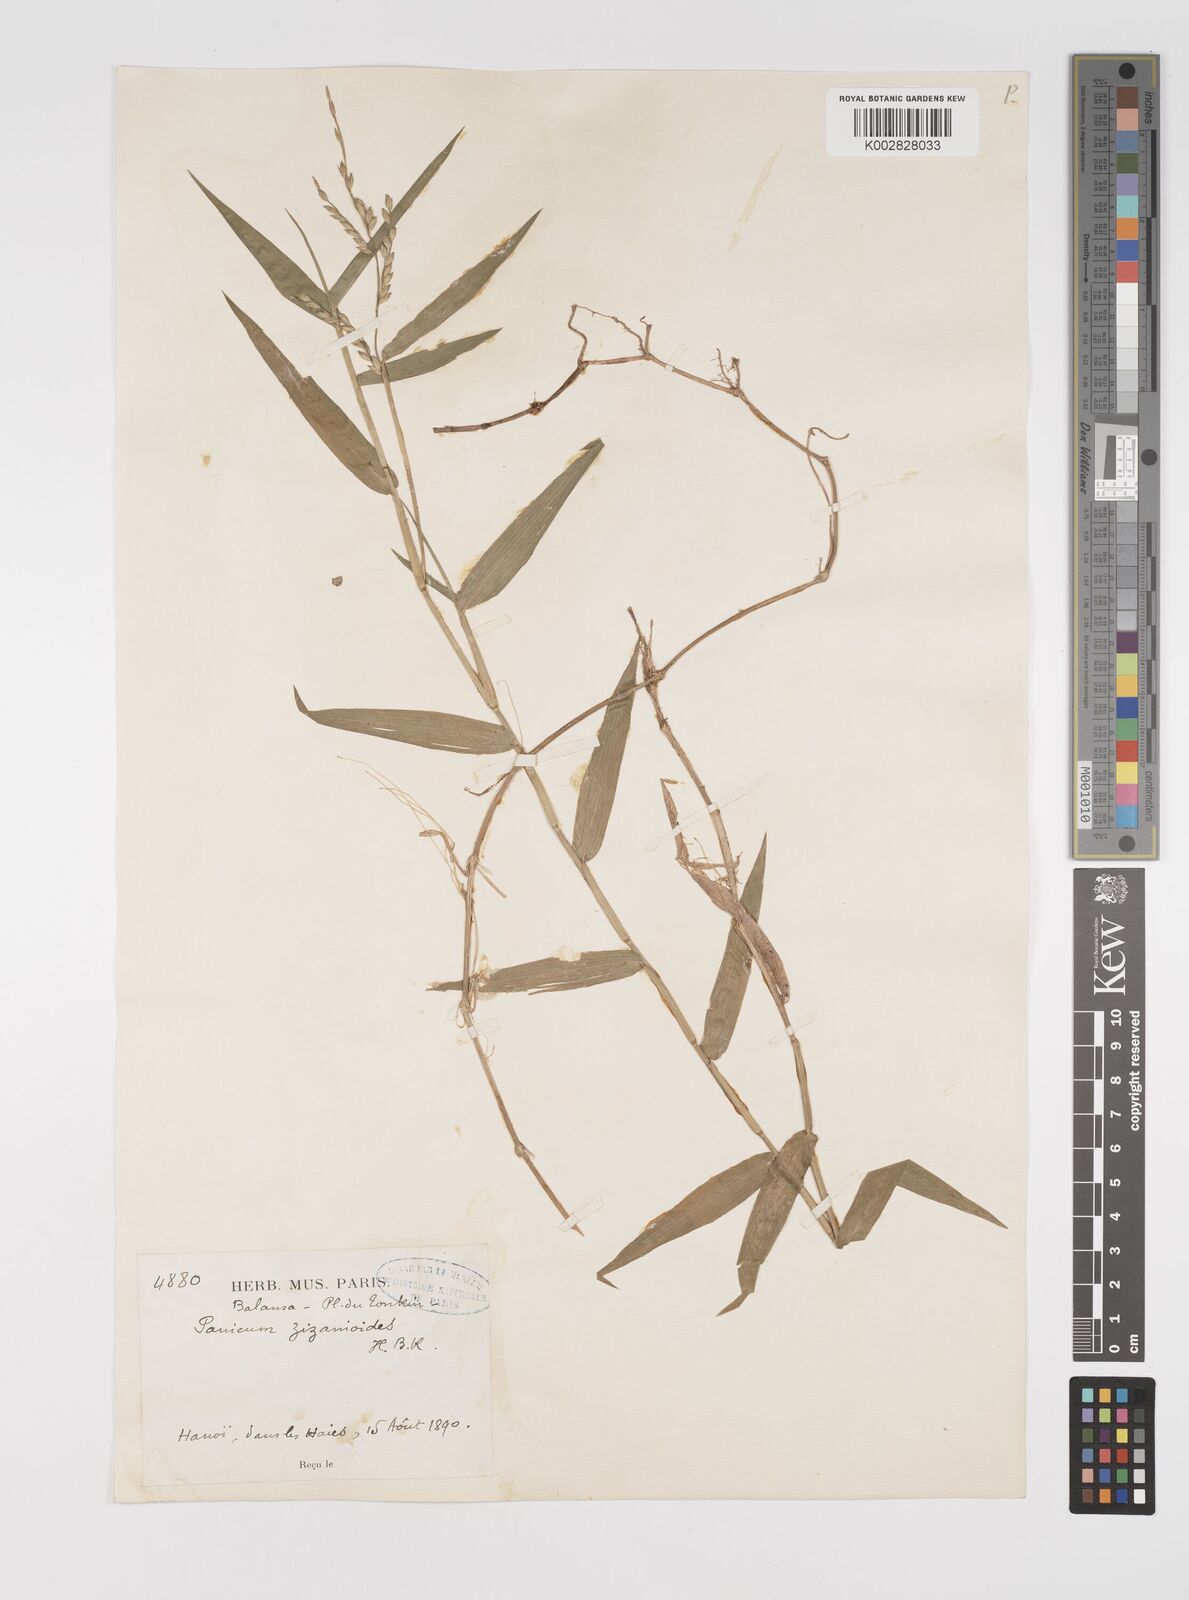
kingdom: Plantae
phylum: Tracheophyta
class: Liliopsida
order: Poales
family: Poaceae
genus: Acroceras
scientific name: Acroceras munroanum
